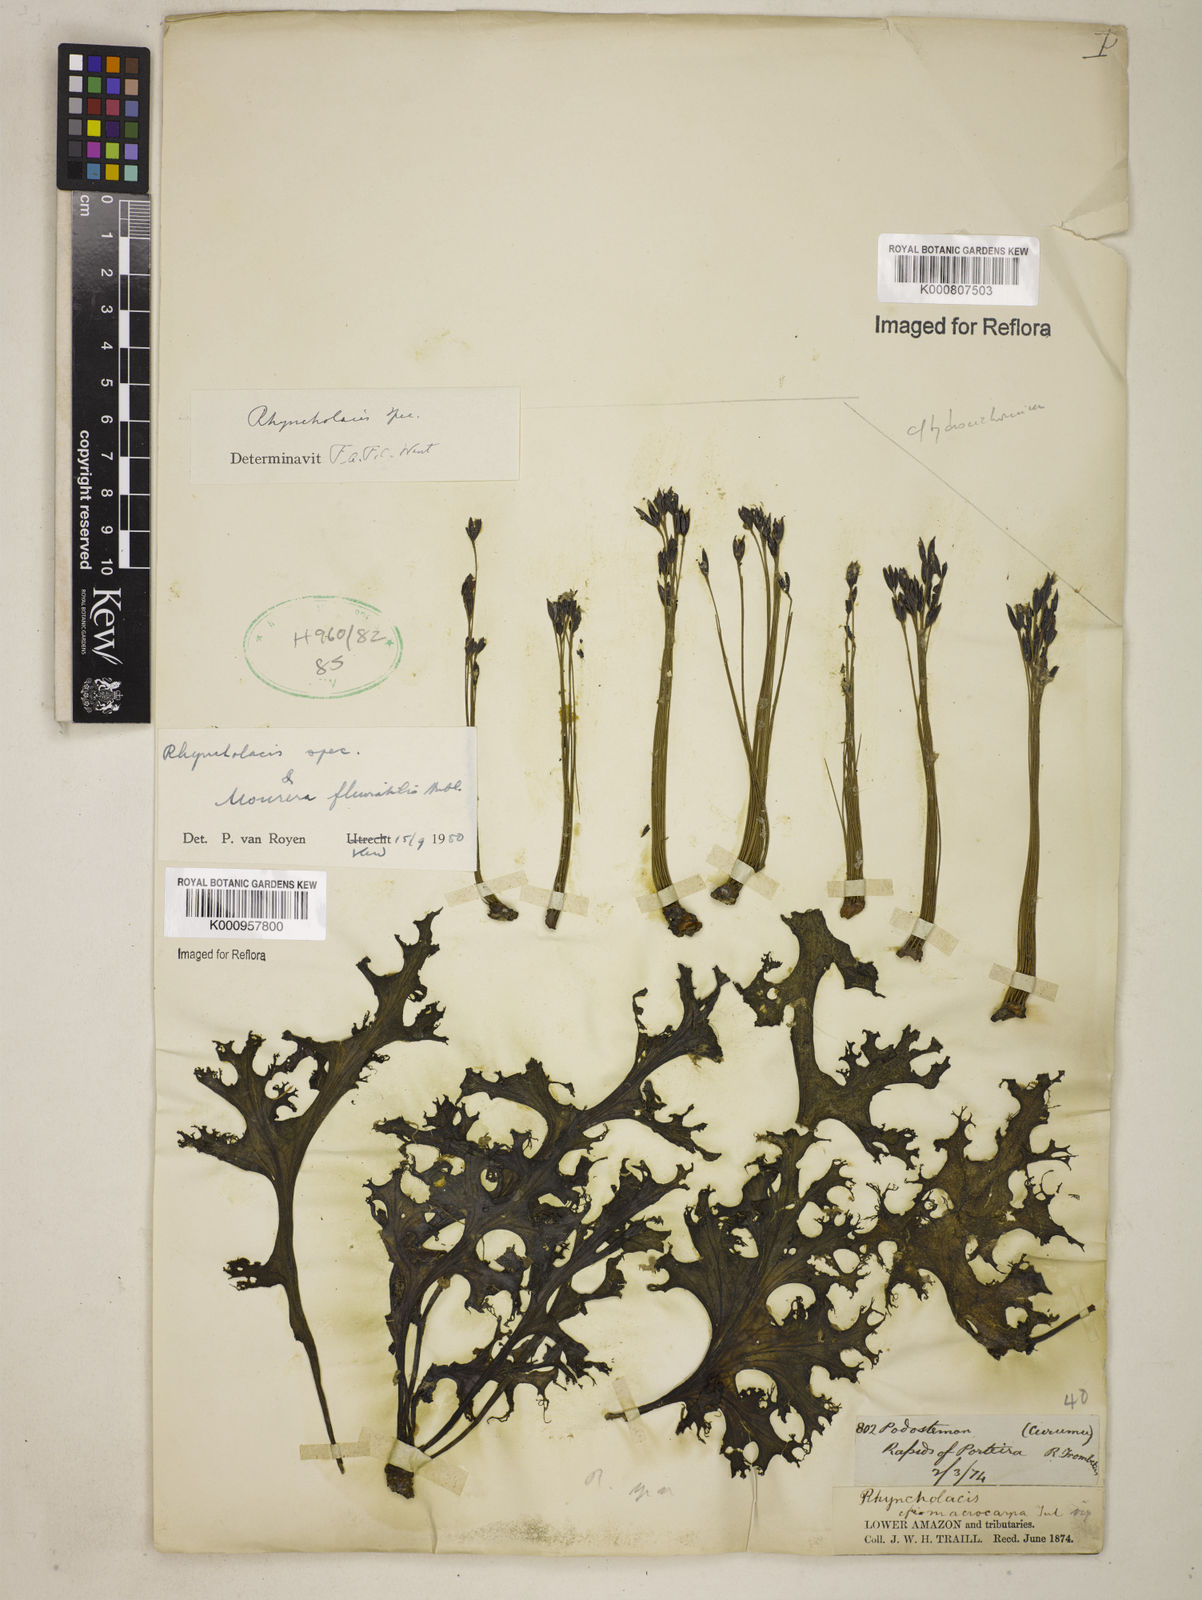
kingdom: Plantae
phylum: Tracheophyta
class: Magnoliopsida
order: Malpighiales
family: Podostemaceae
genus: Mourera
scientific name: Mourera fluviatilis
